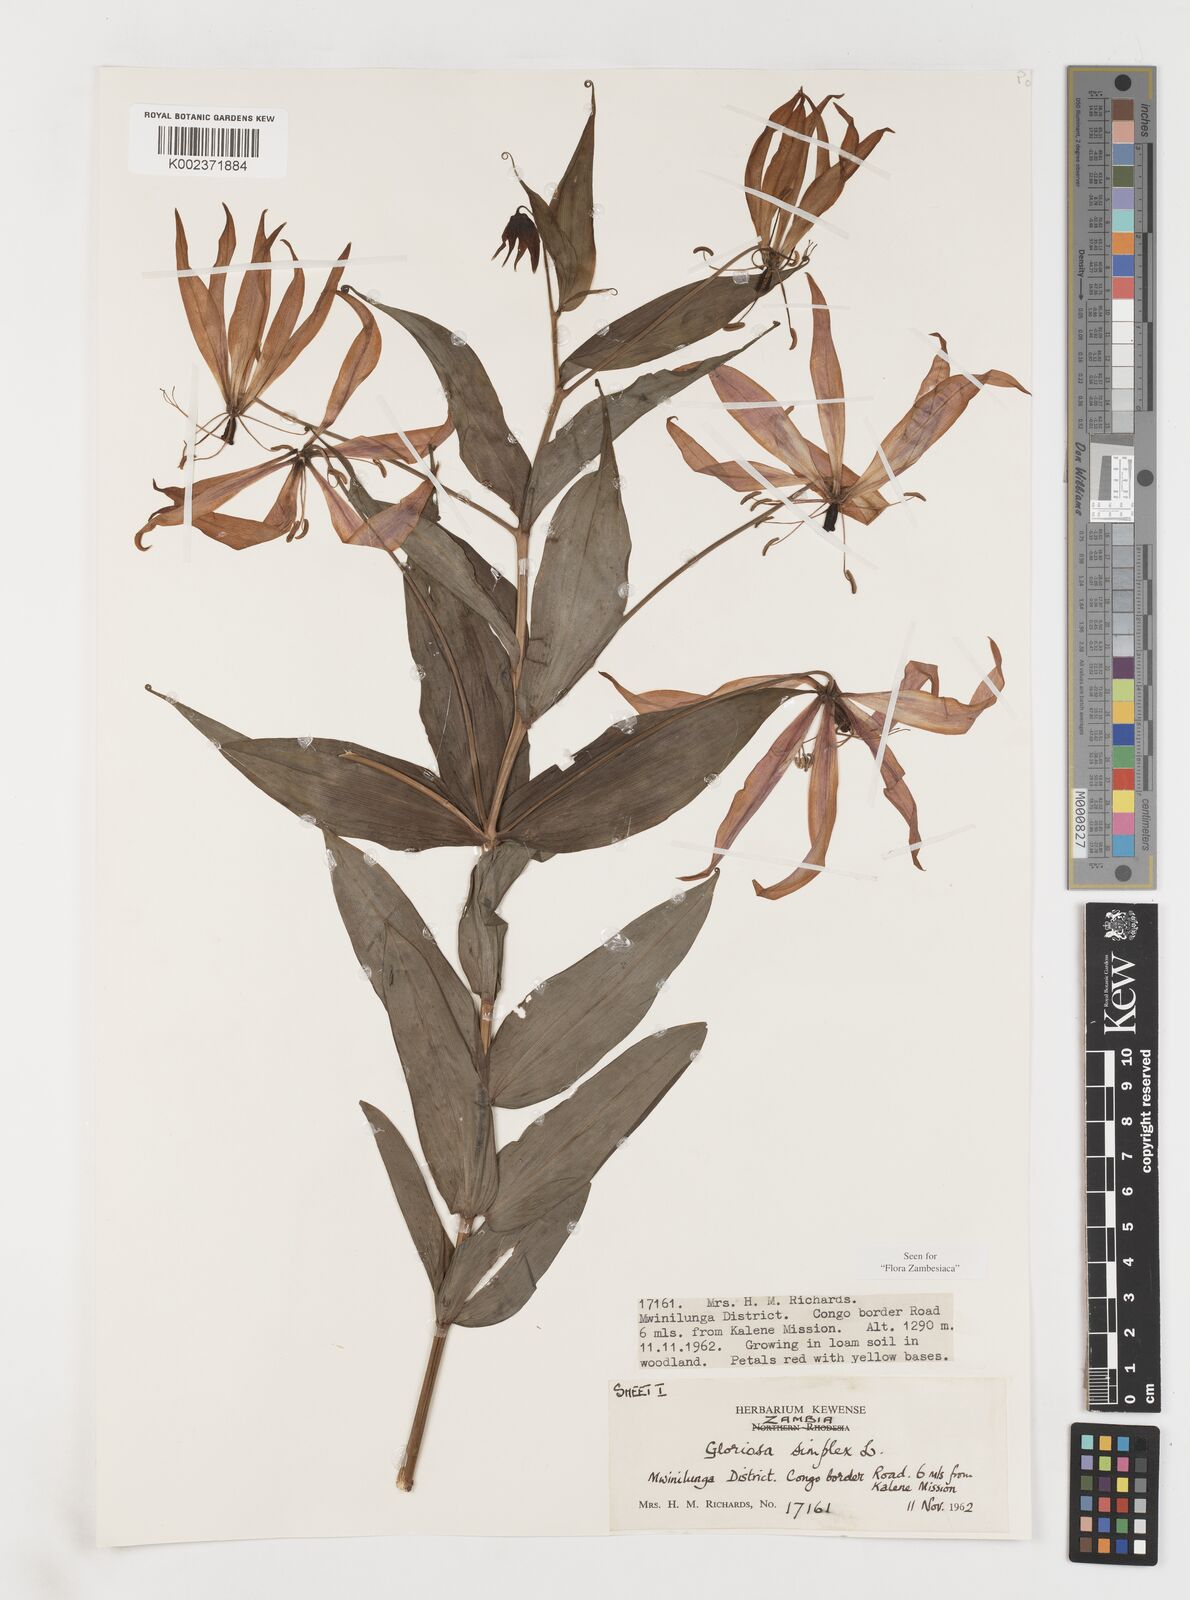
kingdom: Plantae
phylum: Tracheophyta
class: Liliopsida
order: Liliales
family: Colchicaceae
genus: Gloriosa
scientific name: Gloriosa simplex
